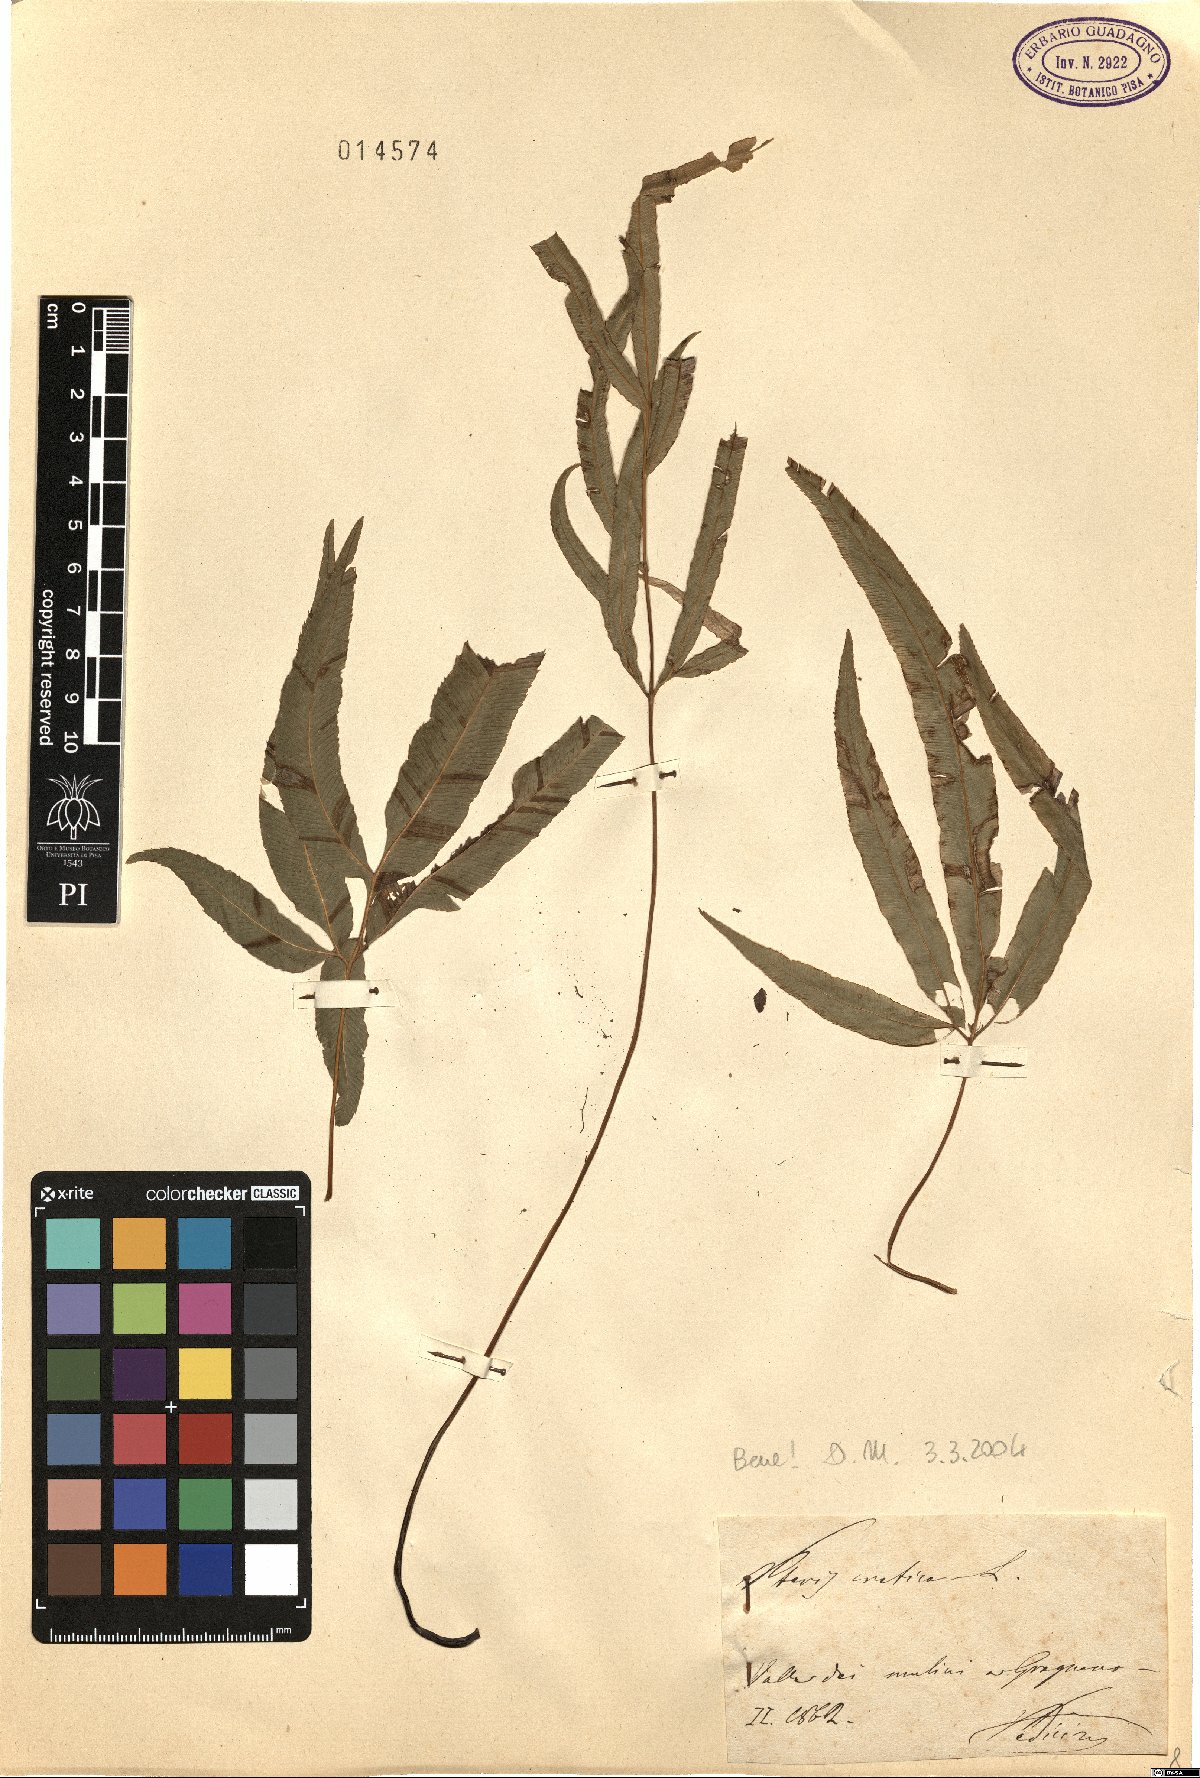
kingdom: Plantae
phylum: Tracheophyta
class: Polypodiopsida
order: Polypodiales
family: Pteridaceae
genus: Pteris
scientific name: Pteris cretica
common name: Ribbon fern
